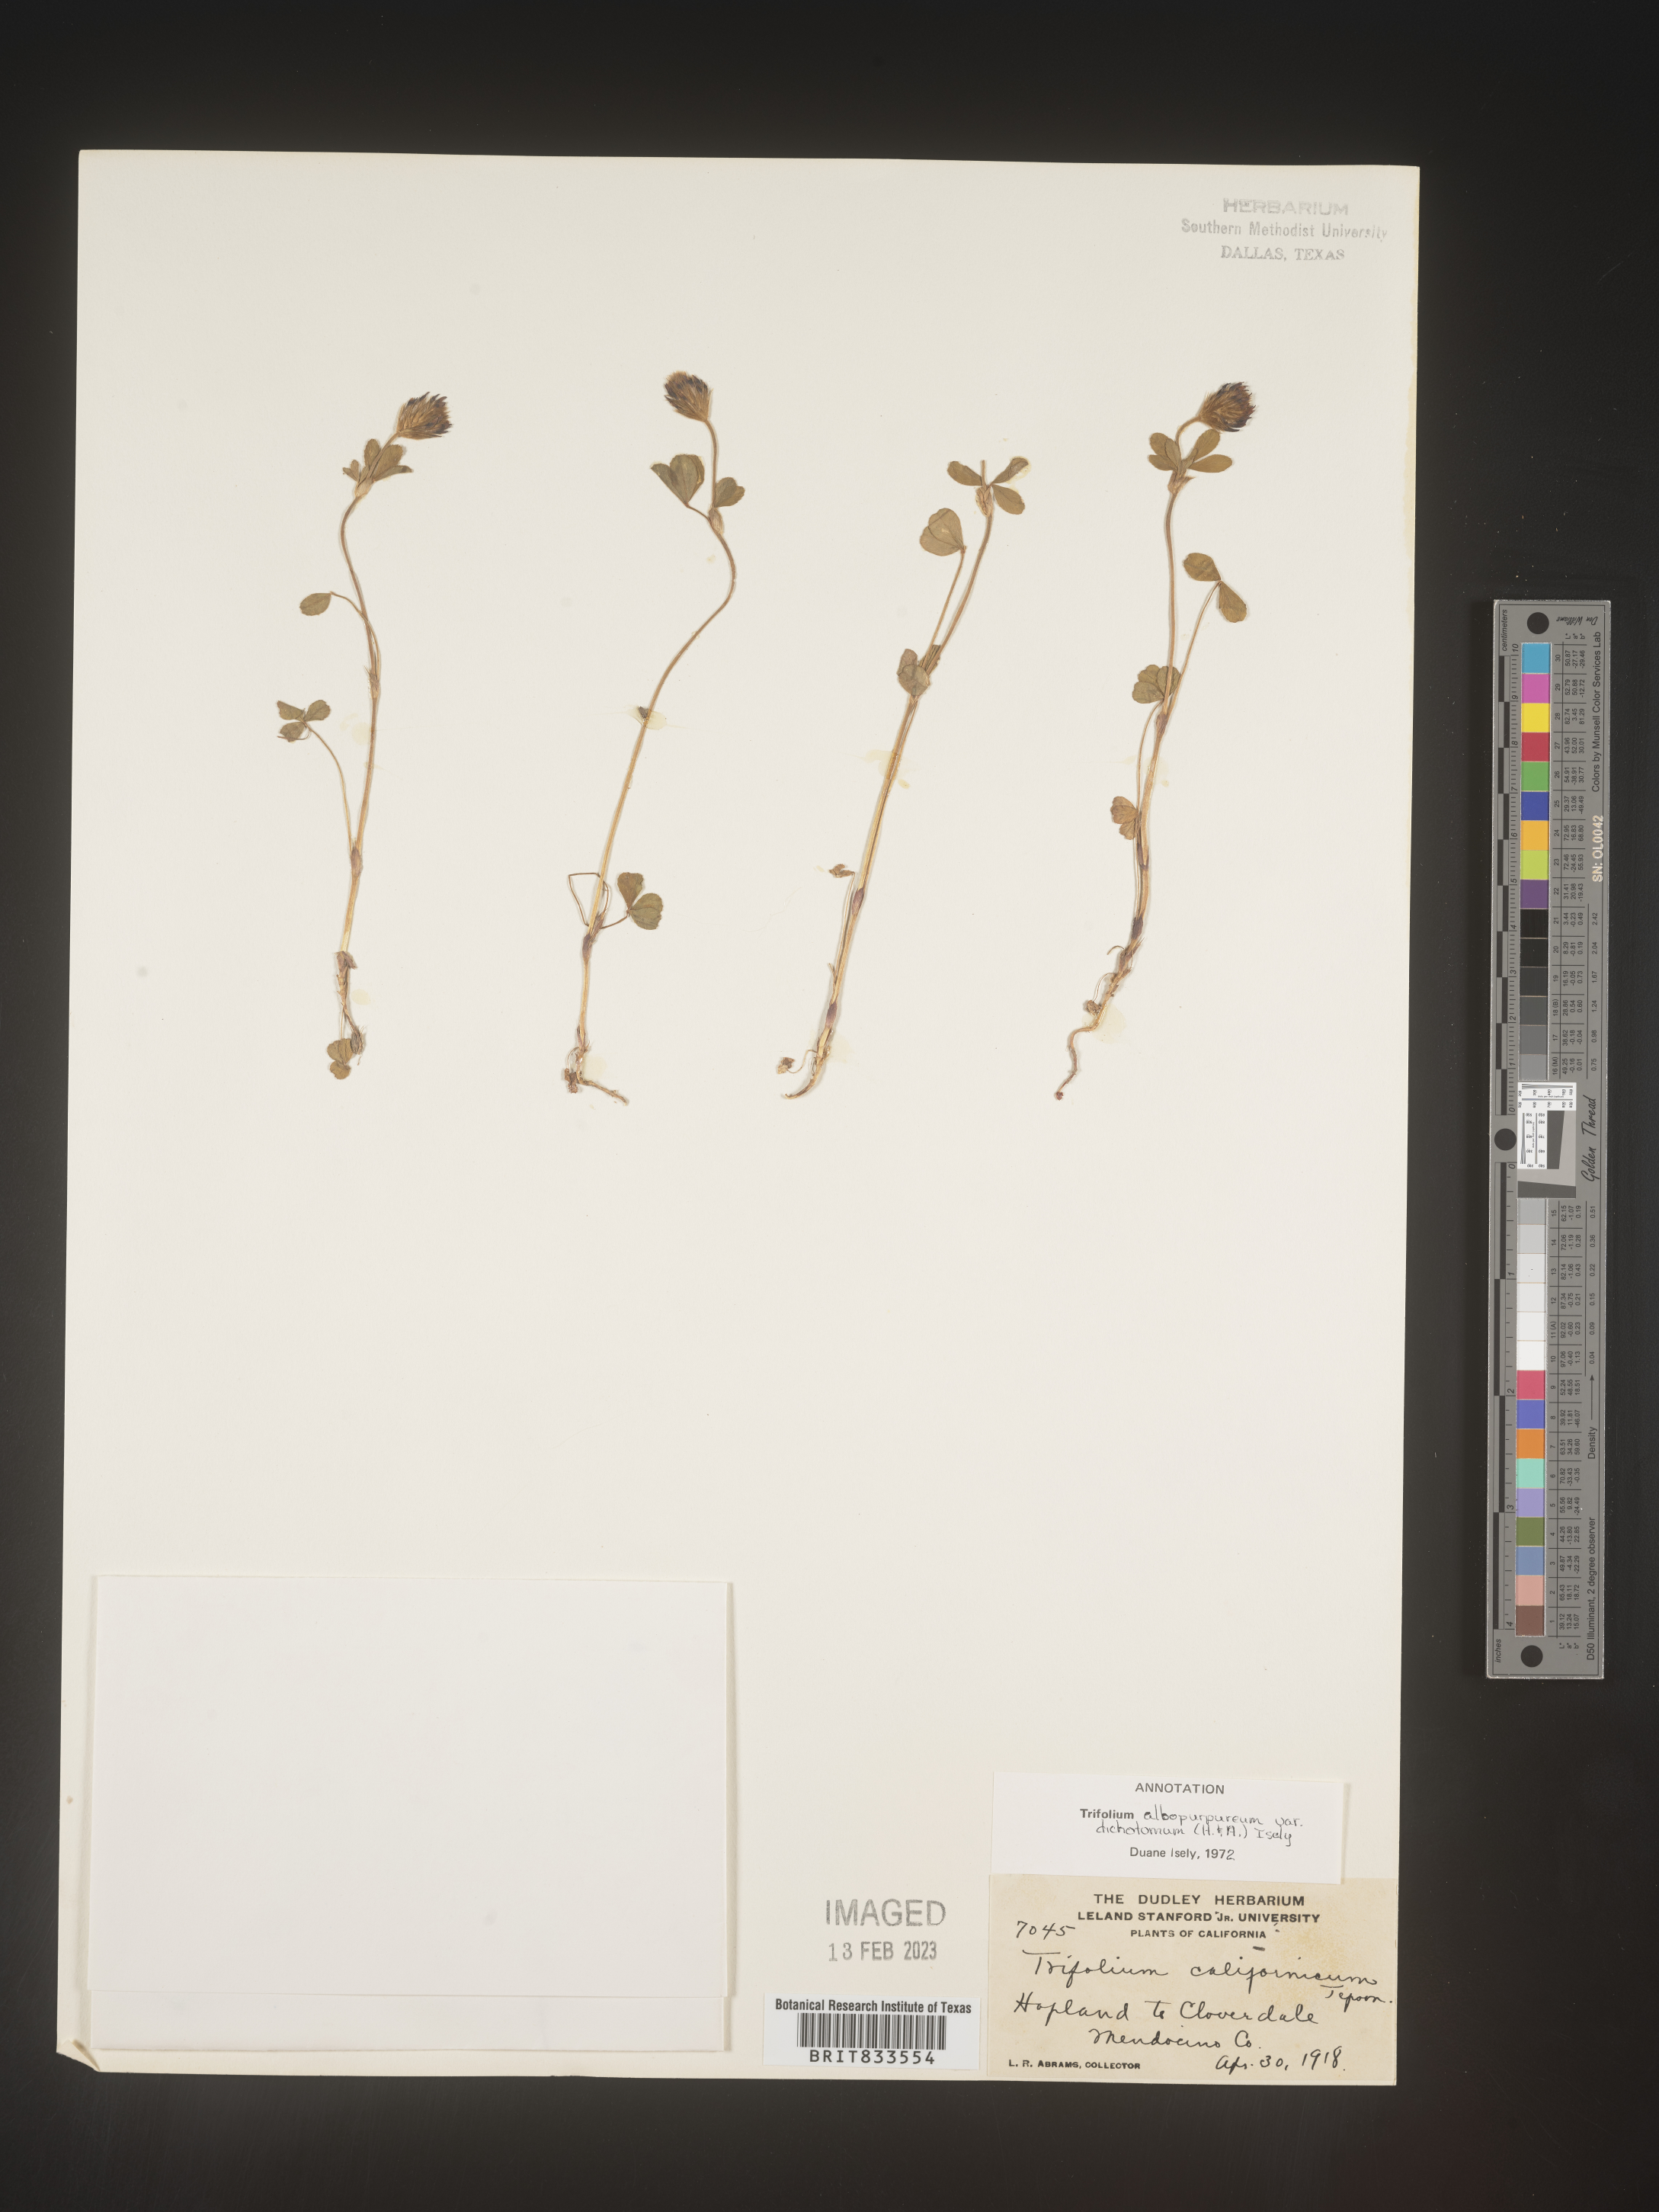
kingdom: Plantae
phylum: Tracheophyta
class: Magnoliopsida
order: Fabales
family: Fabaceae
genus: Trifolium
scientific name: Trifolium
